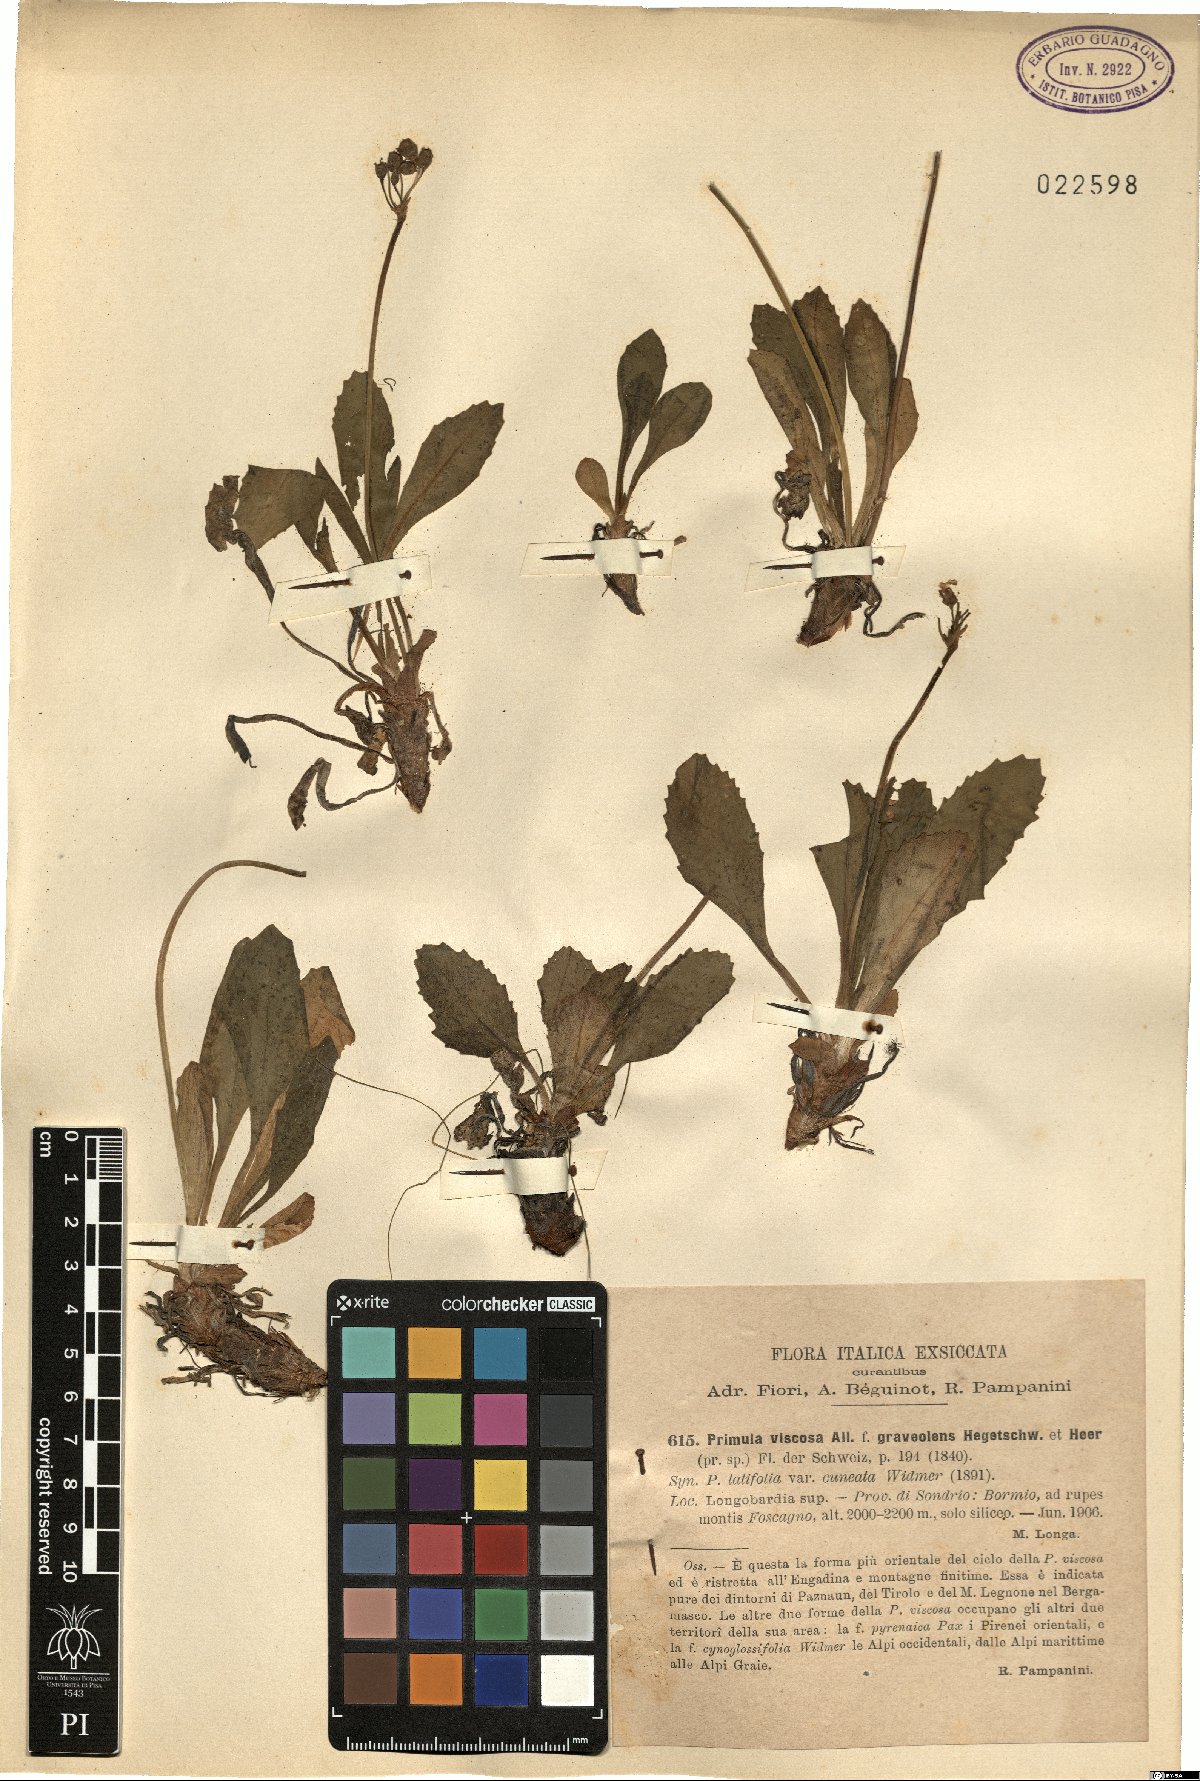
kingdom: Plantae
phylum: Tracheophyta
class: Magnoliopsida
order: Ericales
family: Primulaceae
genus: Primula
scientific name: Primula latifolia
